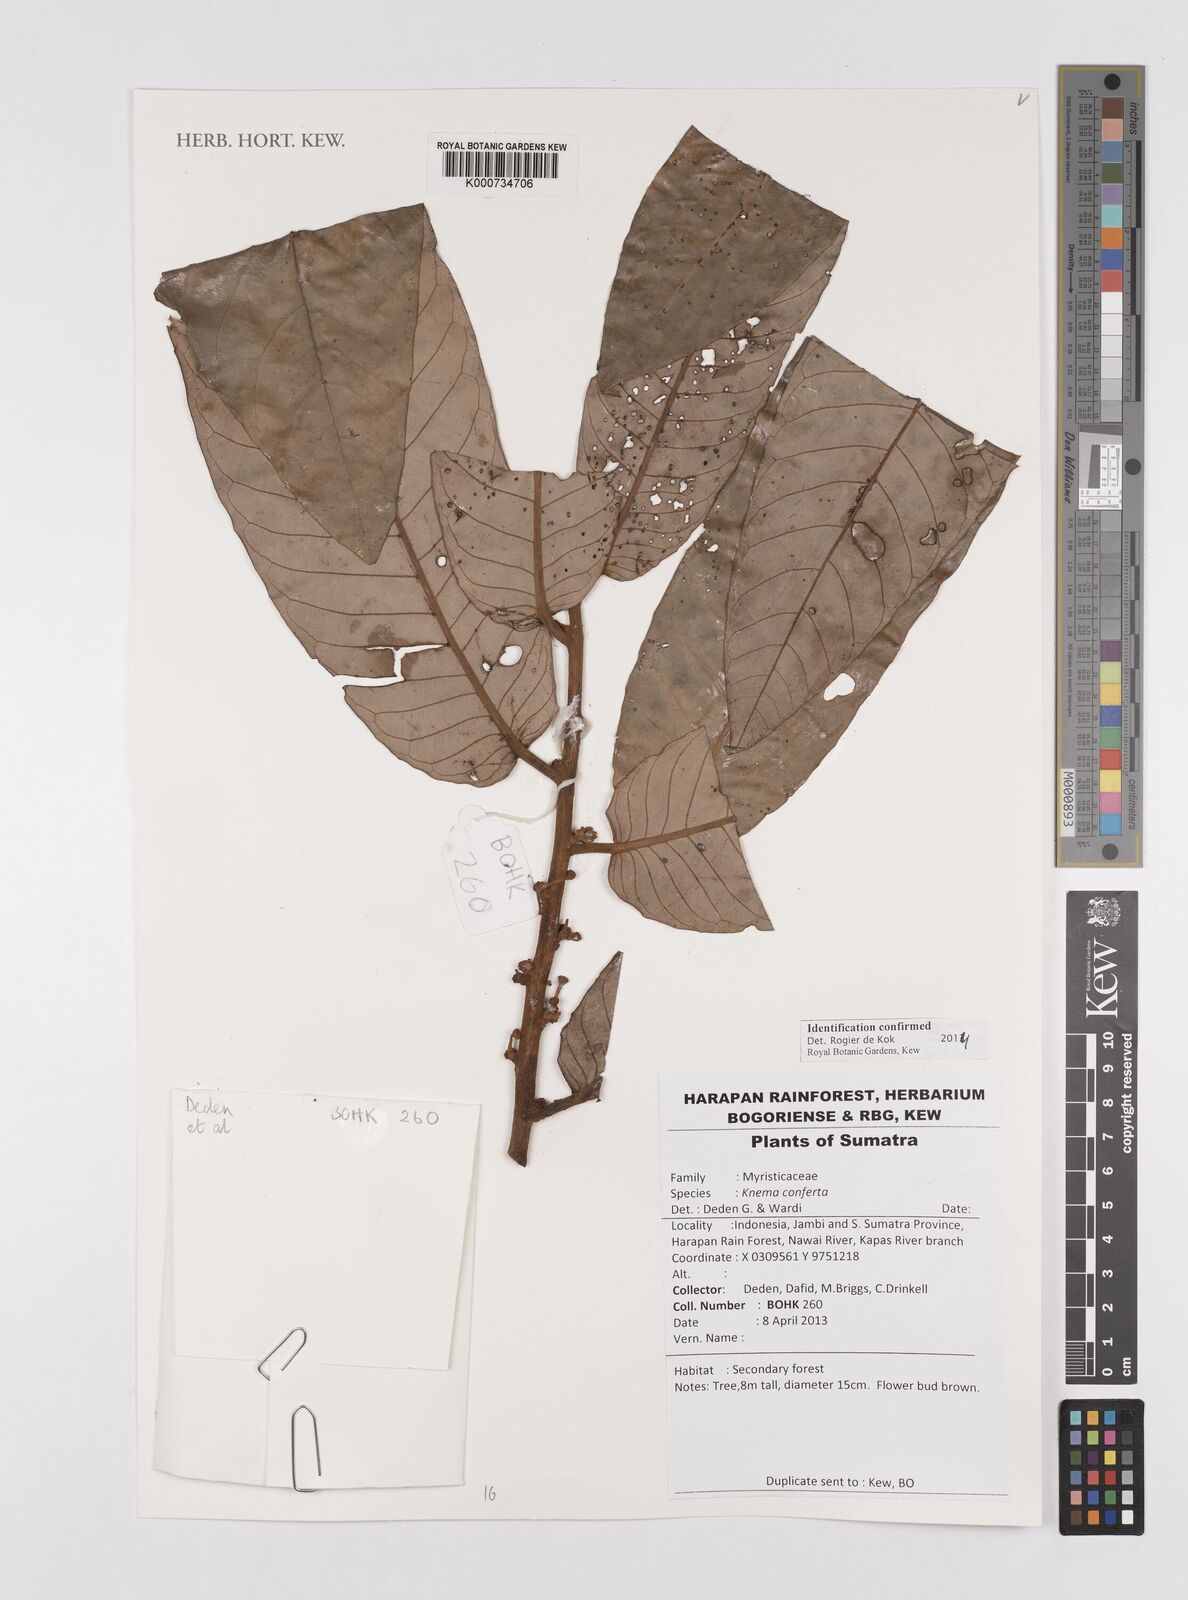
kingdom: Plantae
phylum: Tracheophyta
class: Magnoliopsida
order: Magnoliales
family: Myristicaceae
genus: Knema
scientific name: Knema conferta
